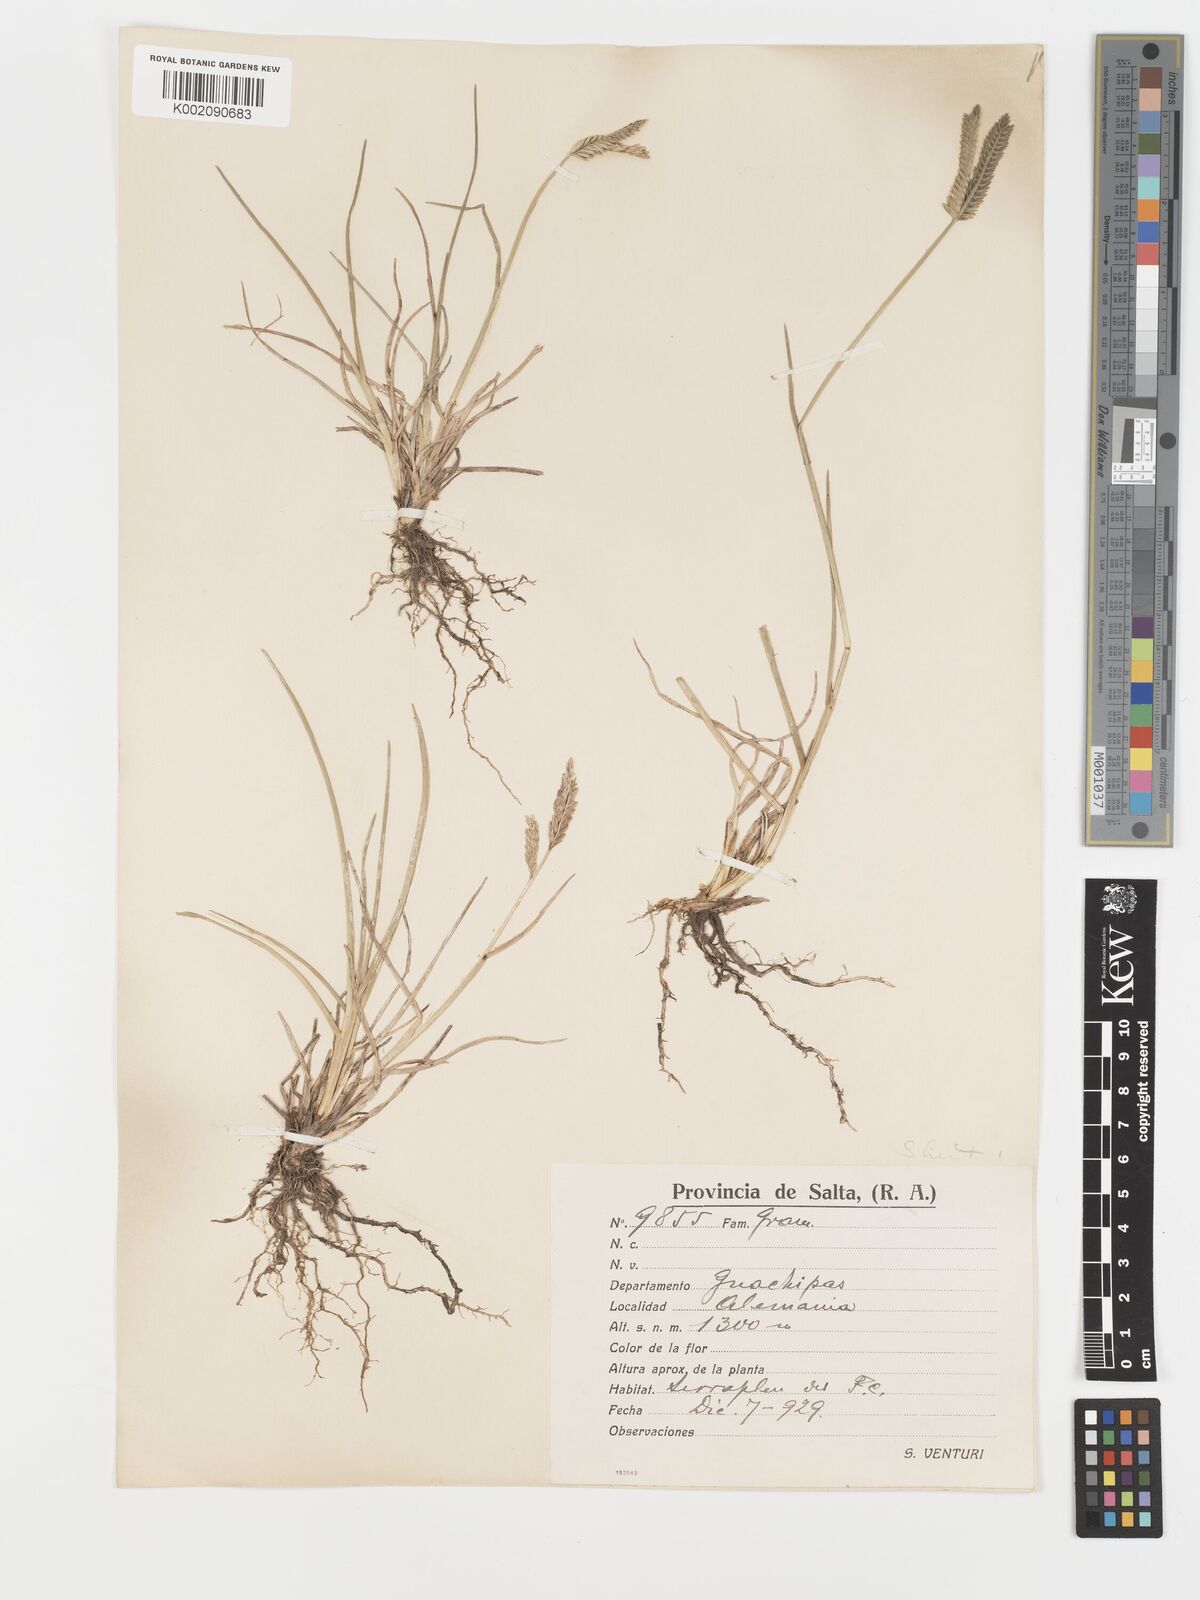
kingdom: Plantae
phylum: Tracheophyta
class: Liliopsida
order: Poales
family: Poaceae
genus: Eleusine
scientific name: Eleusine tristachya
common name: American yard-grass
